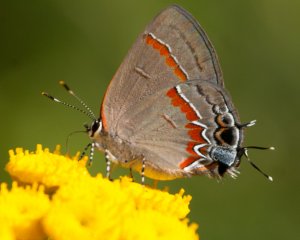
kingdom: Animalia
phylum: Arthropoda
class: Insecta
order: Lepidoptera
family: Lycaenidae
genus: Calycopis
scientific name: Calycopis cecrops
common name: Red-banded Hairstreak
